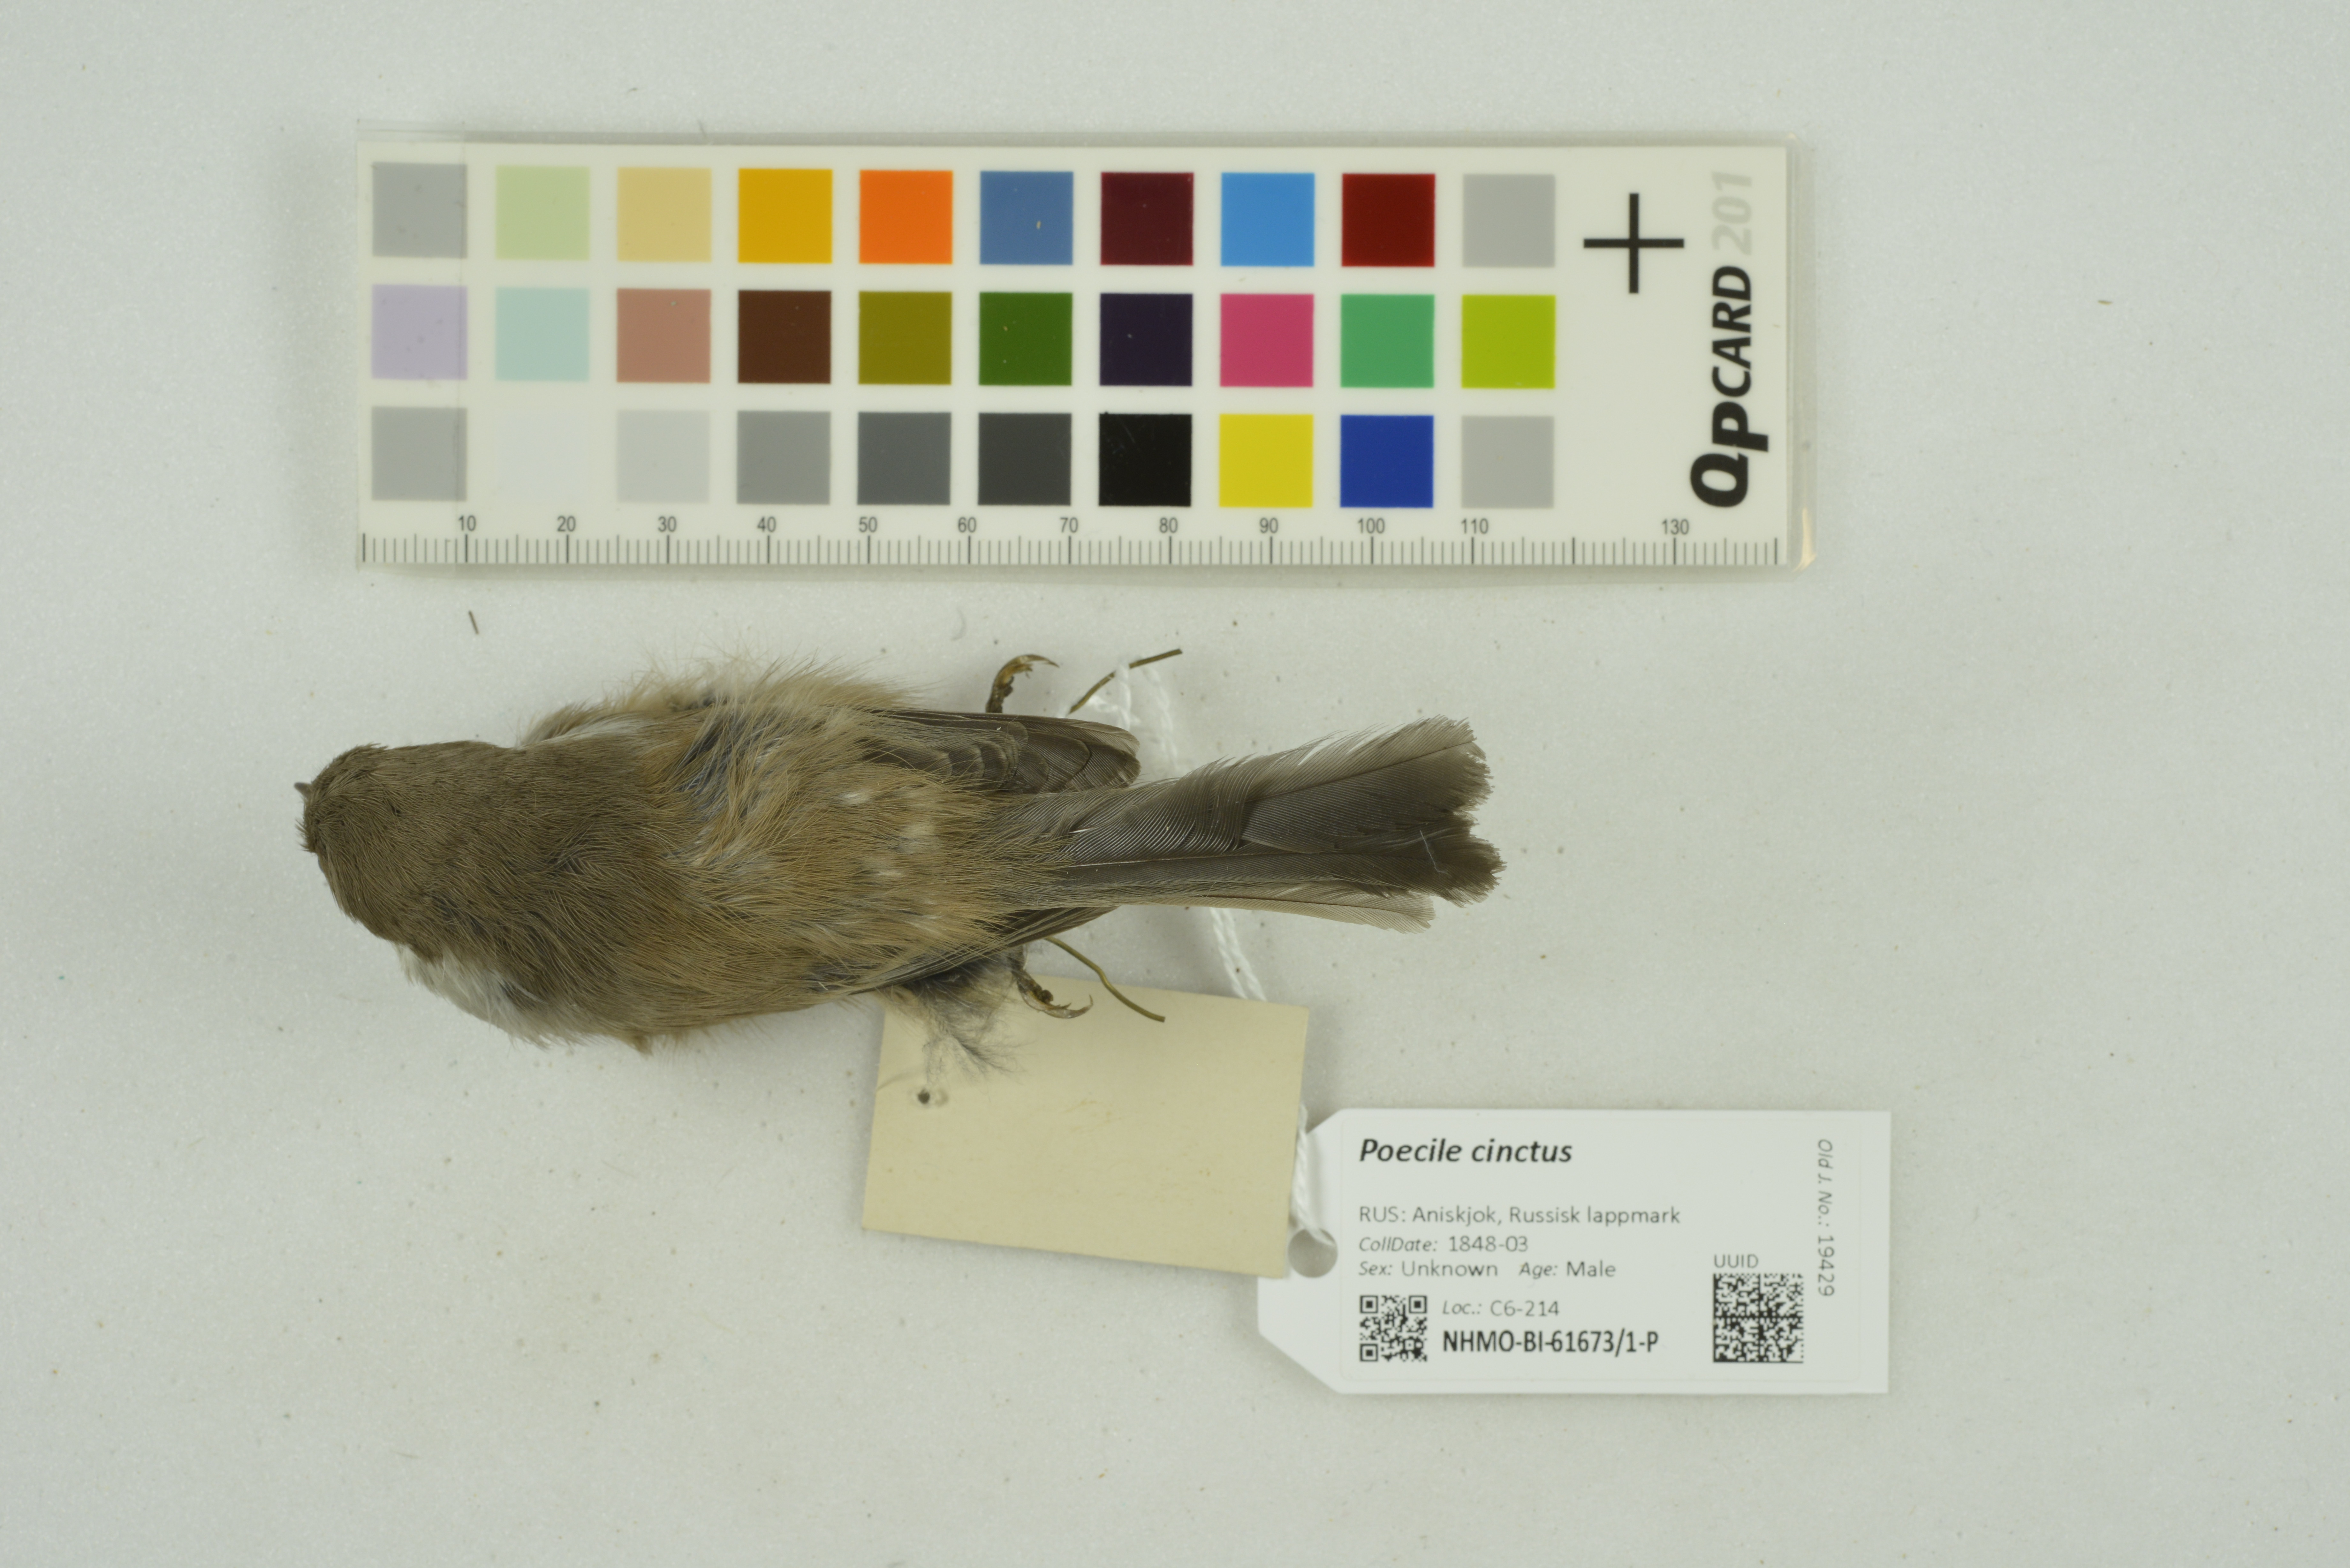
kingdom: Animalia
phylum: Chordata
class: Aves
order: Passeriformes
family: Paridae
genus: Poecile
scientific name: Poecile cinctus
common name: Gray-headed chickadee
